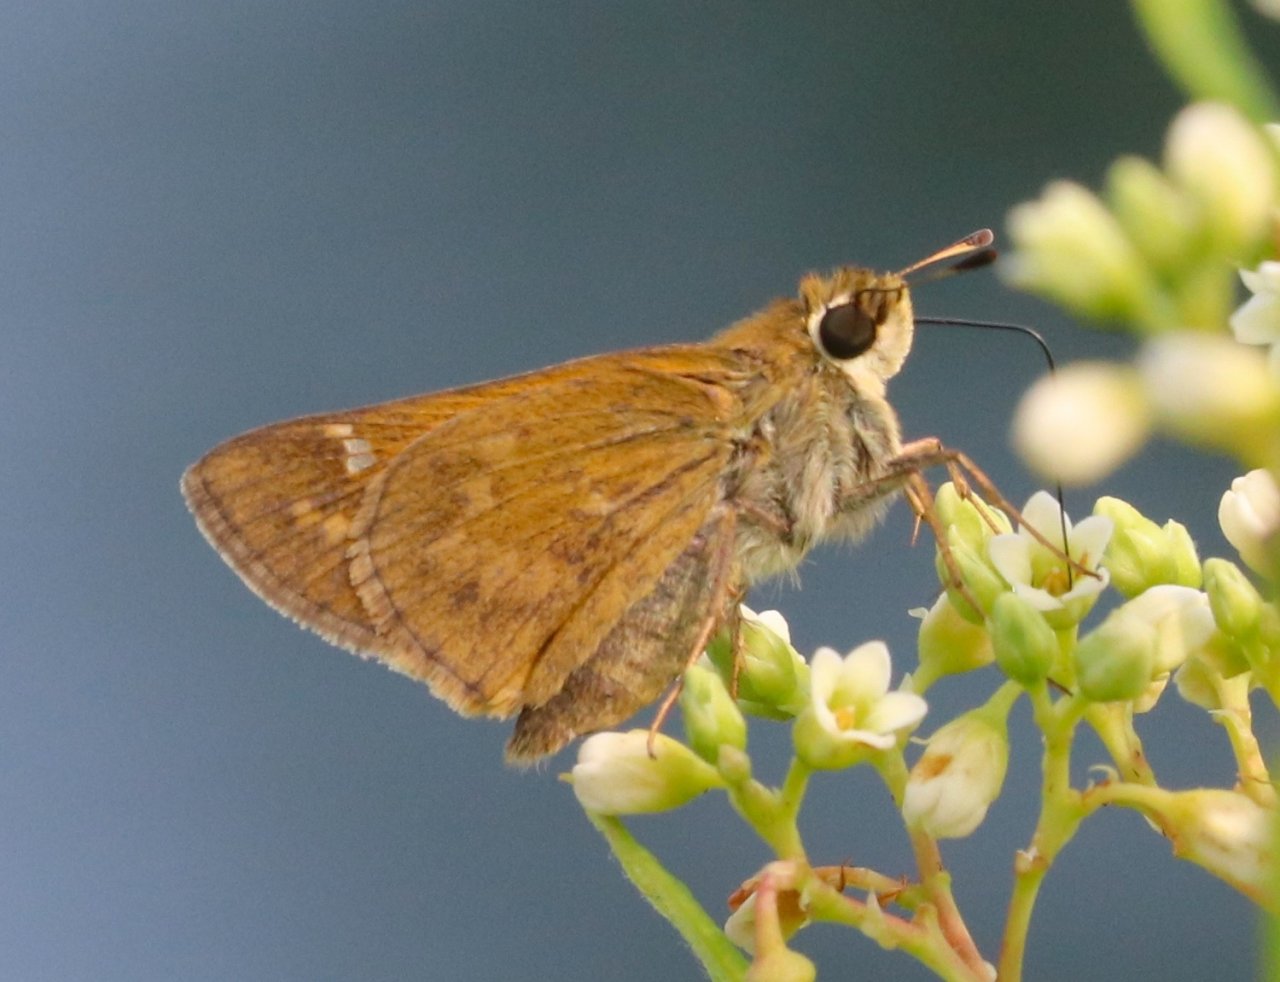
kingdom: Animalia
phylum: Arthropoda
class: Insecta
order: Lepidoptera
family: Hesperiidae
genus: Atalopedes
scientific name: Atalopedes campestris
